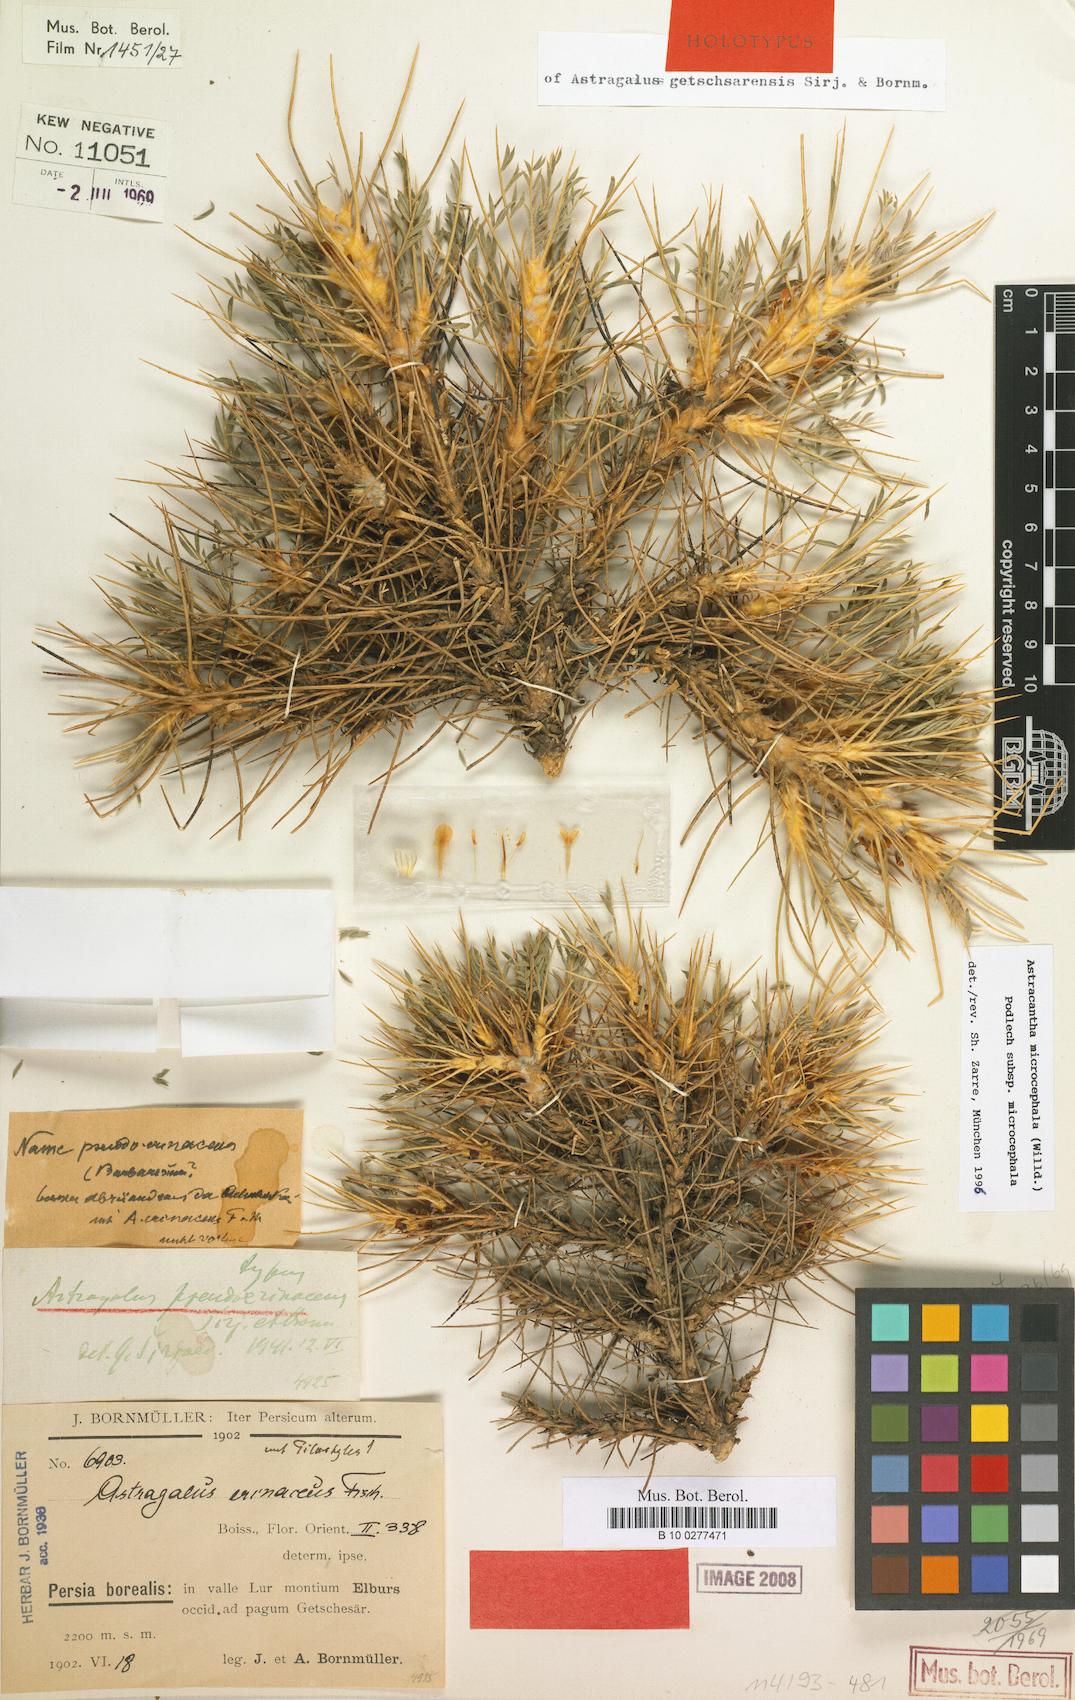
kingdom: Plantae
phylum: Tracheophyta
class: Magnoliopsida
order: Fabales
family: Fabaceae
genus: Astragalus
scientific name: Astragalus microcephalus
